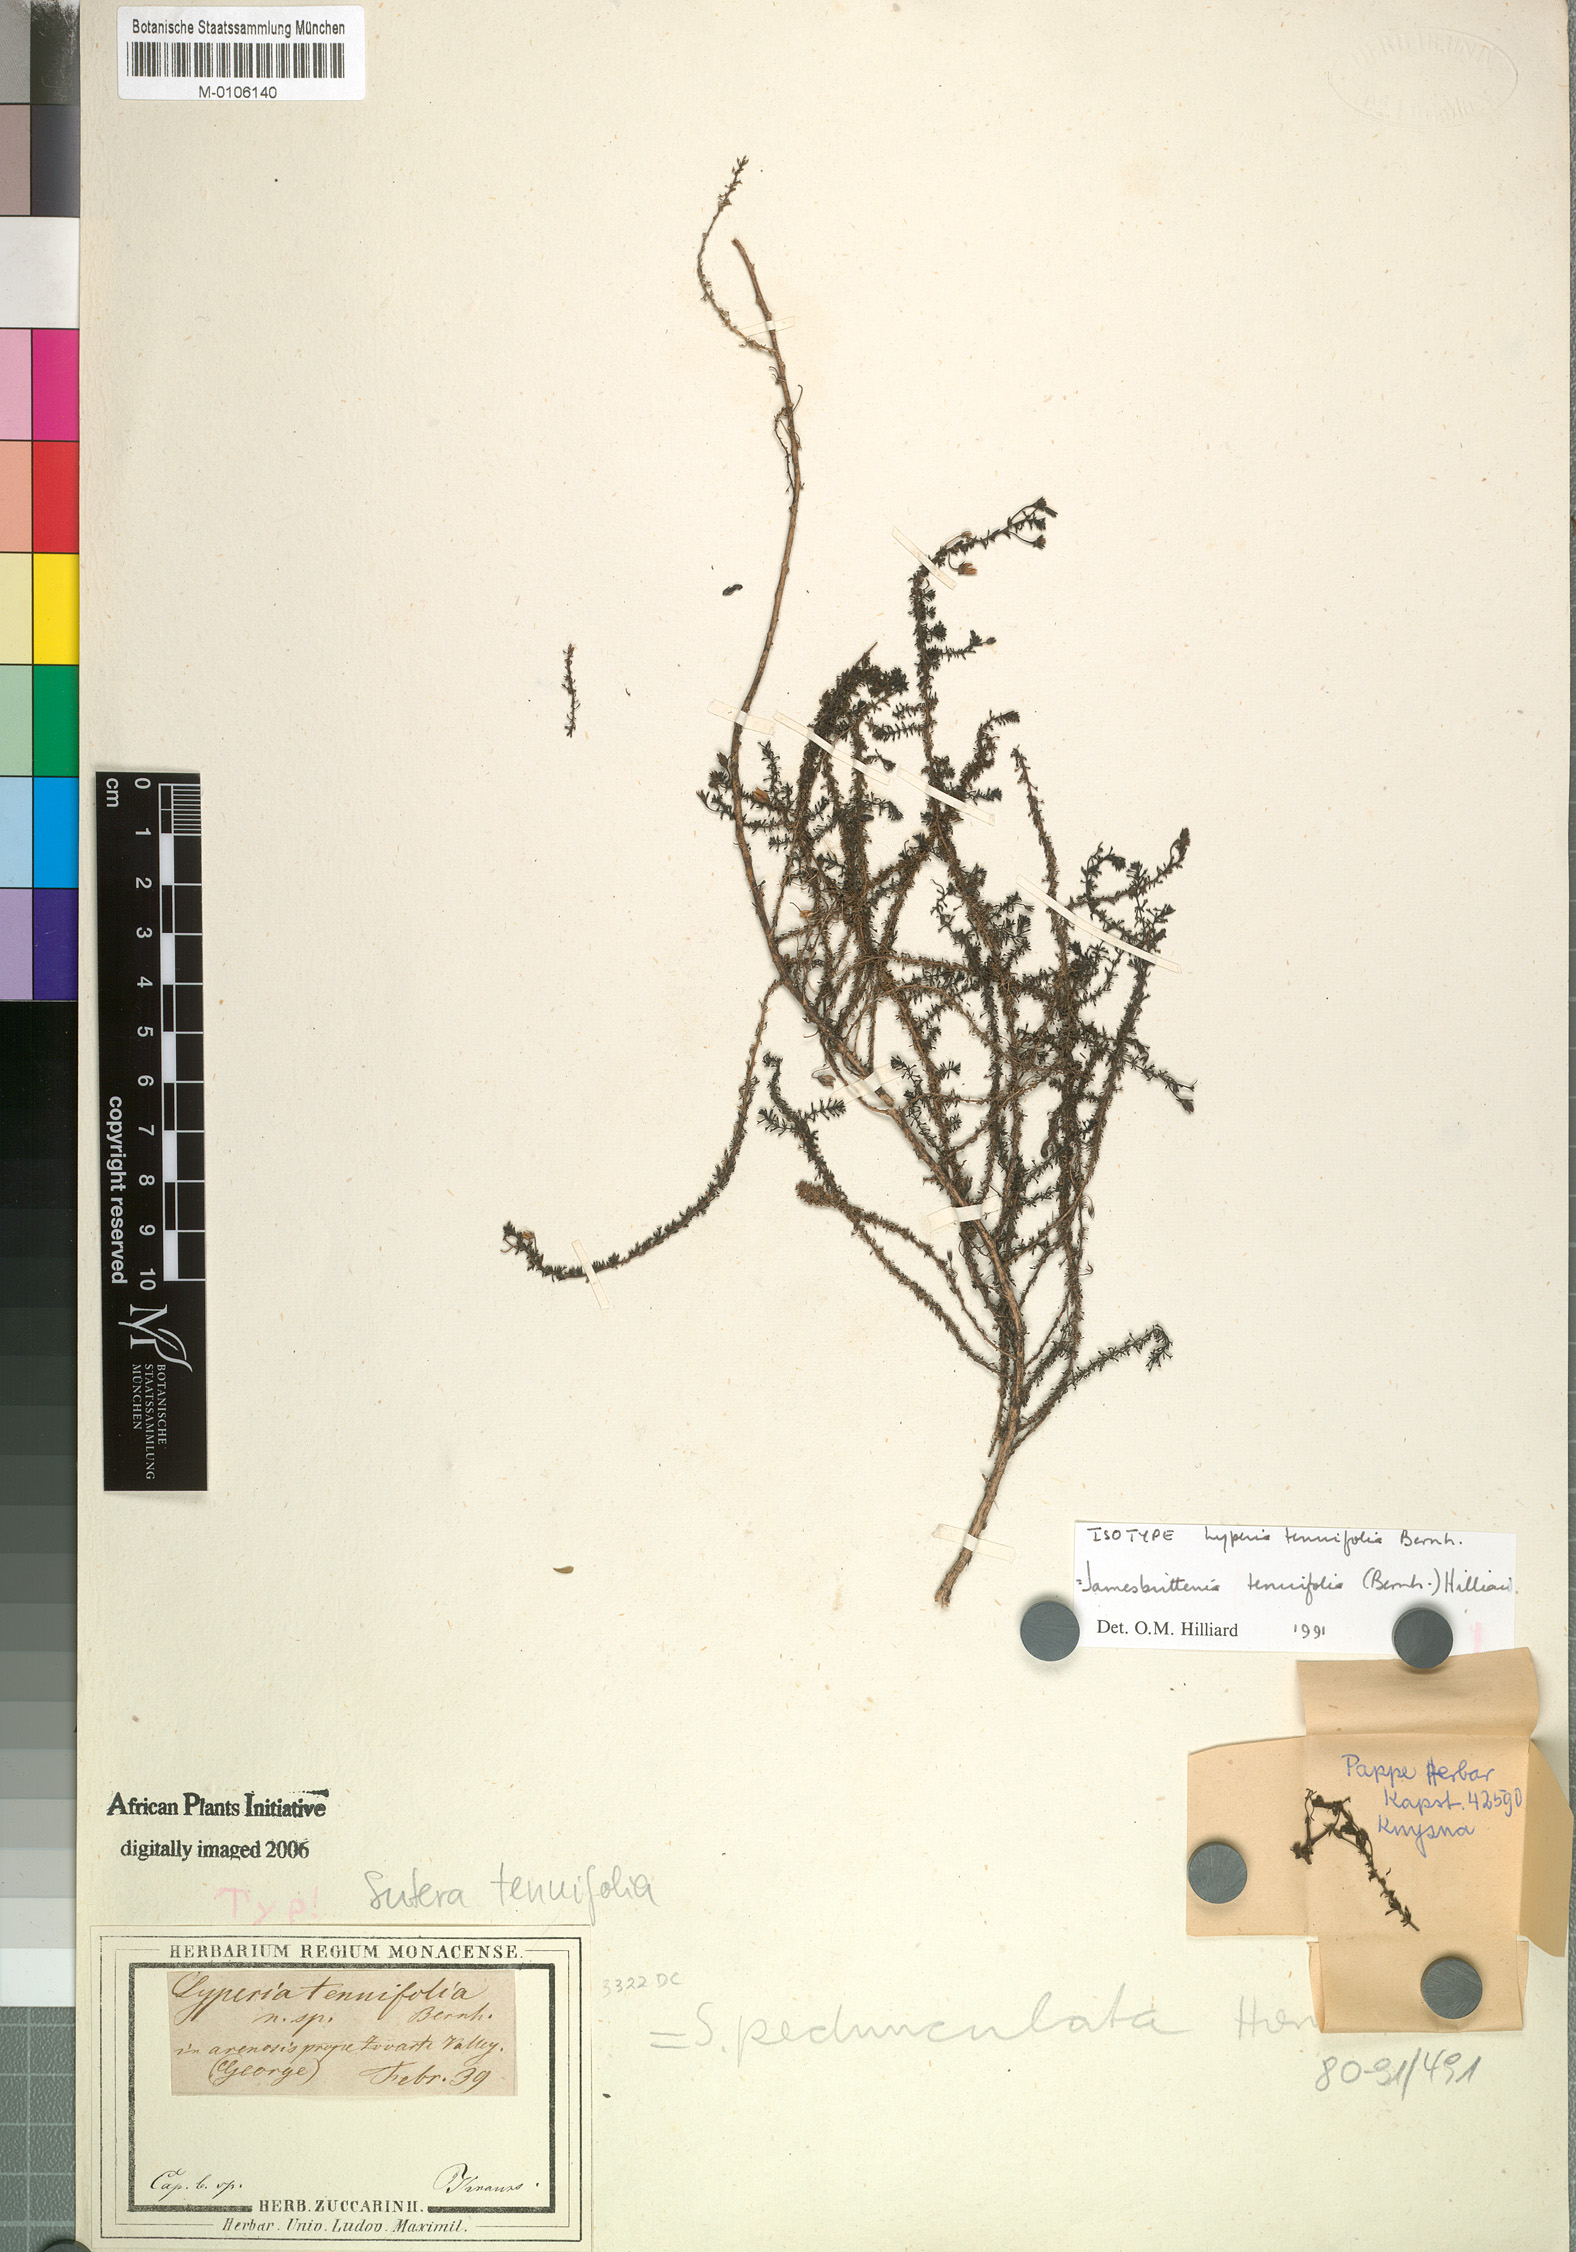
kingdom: Plantae
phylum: Tracheophyta
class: Magnoliopsida
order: Lamiales
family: Scrophulariaceae
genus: Jamesbrittenia
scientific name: Jamesbrittenia tenuifolia
